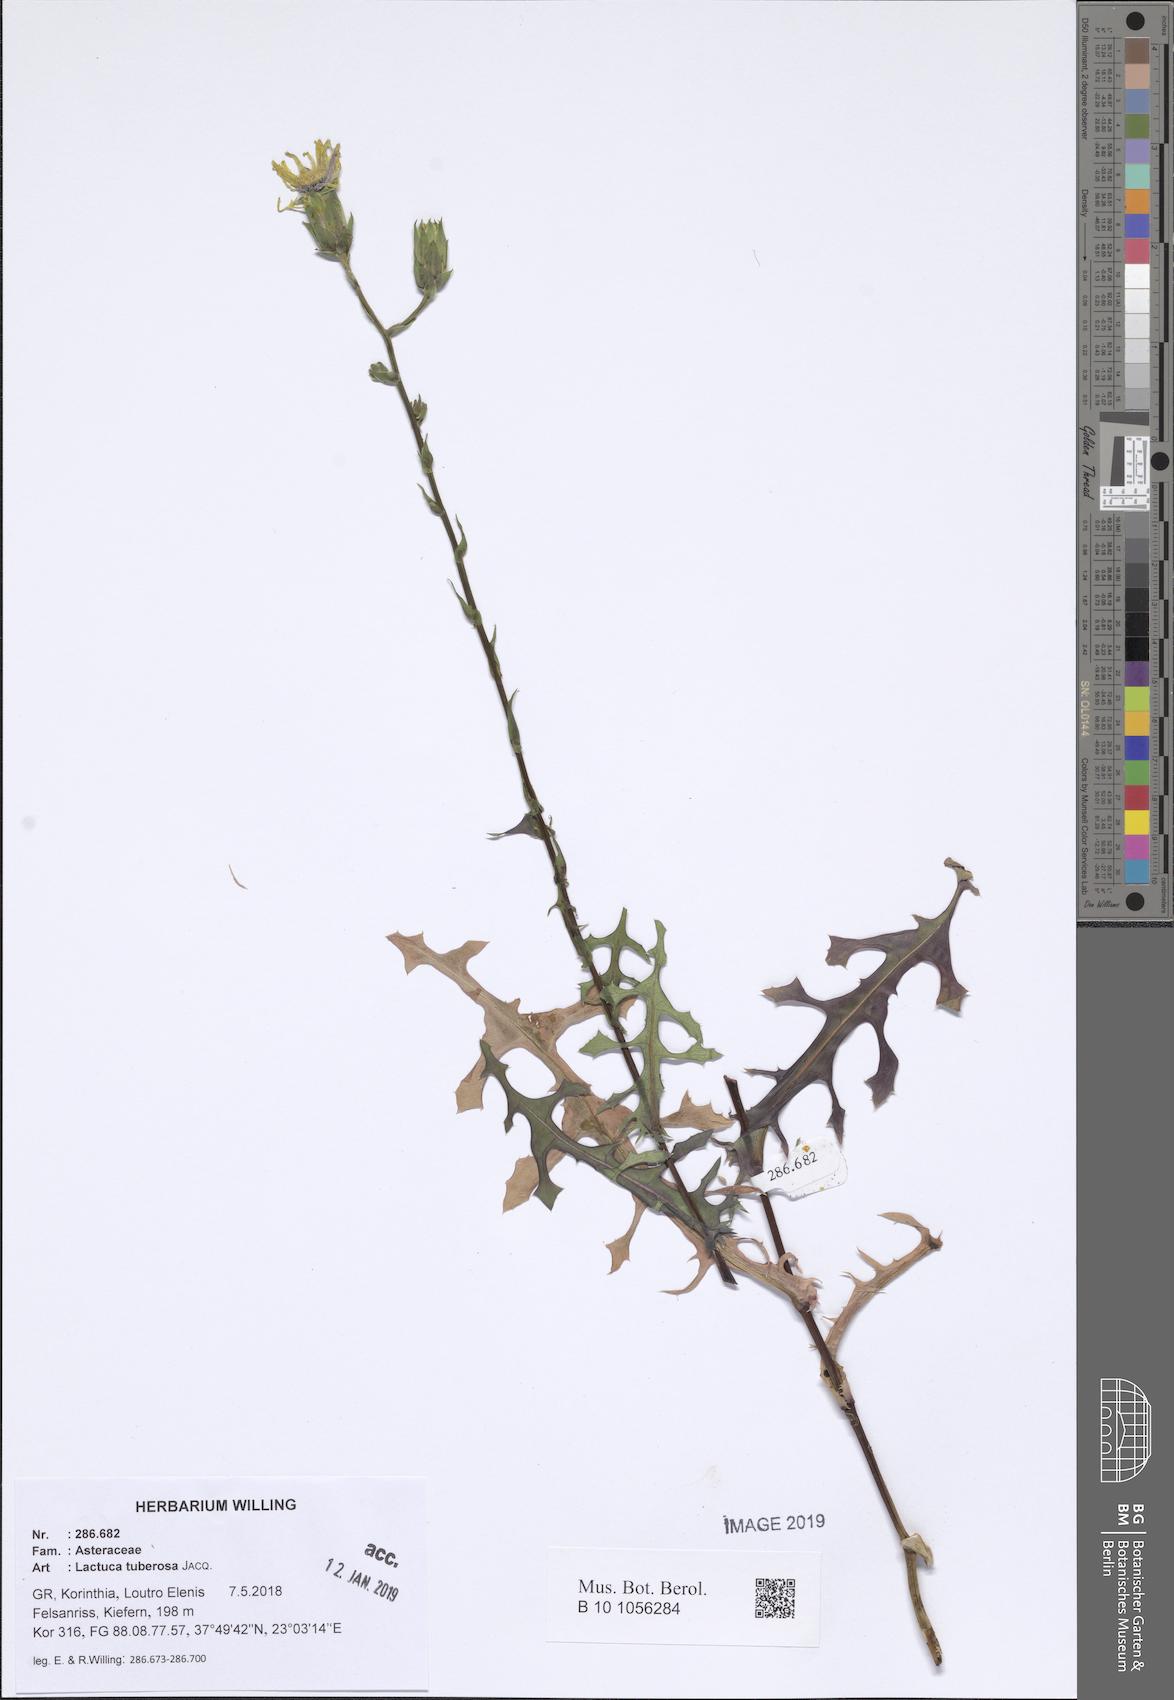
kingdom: Plantae
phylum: Tracheophyta
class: Magnoliopsida
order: Asterales
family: Asteraceae
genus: Lactuca
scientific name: Lactuca tuberosa
